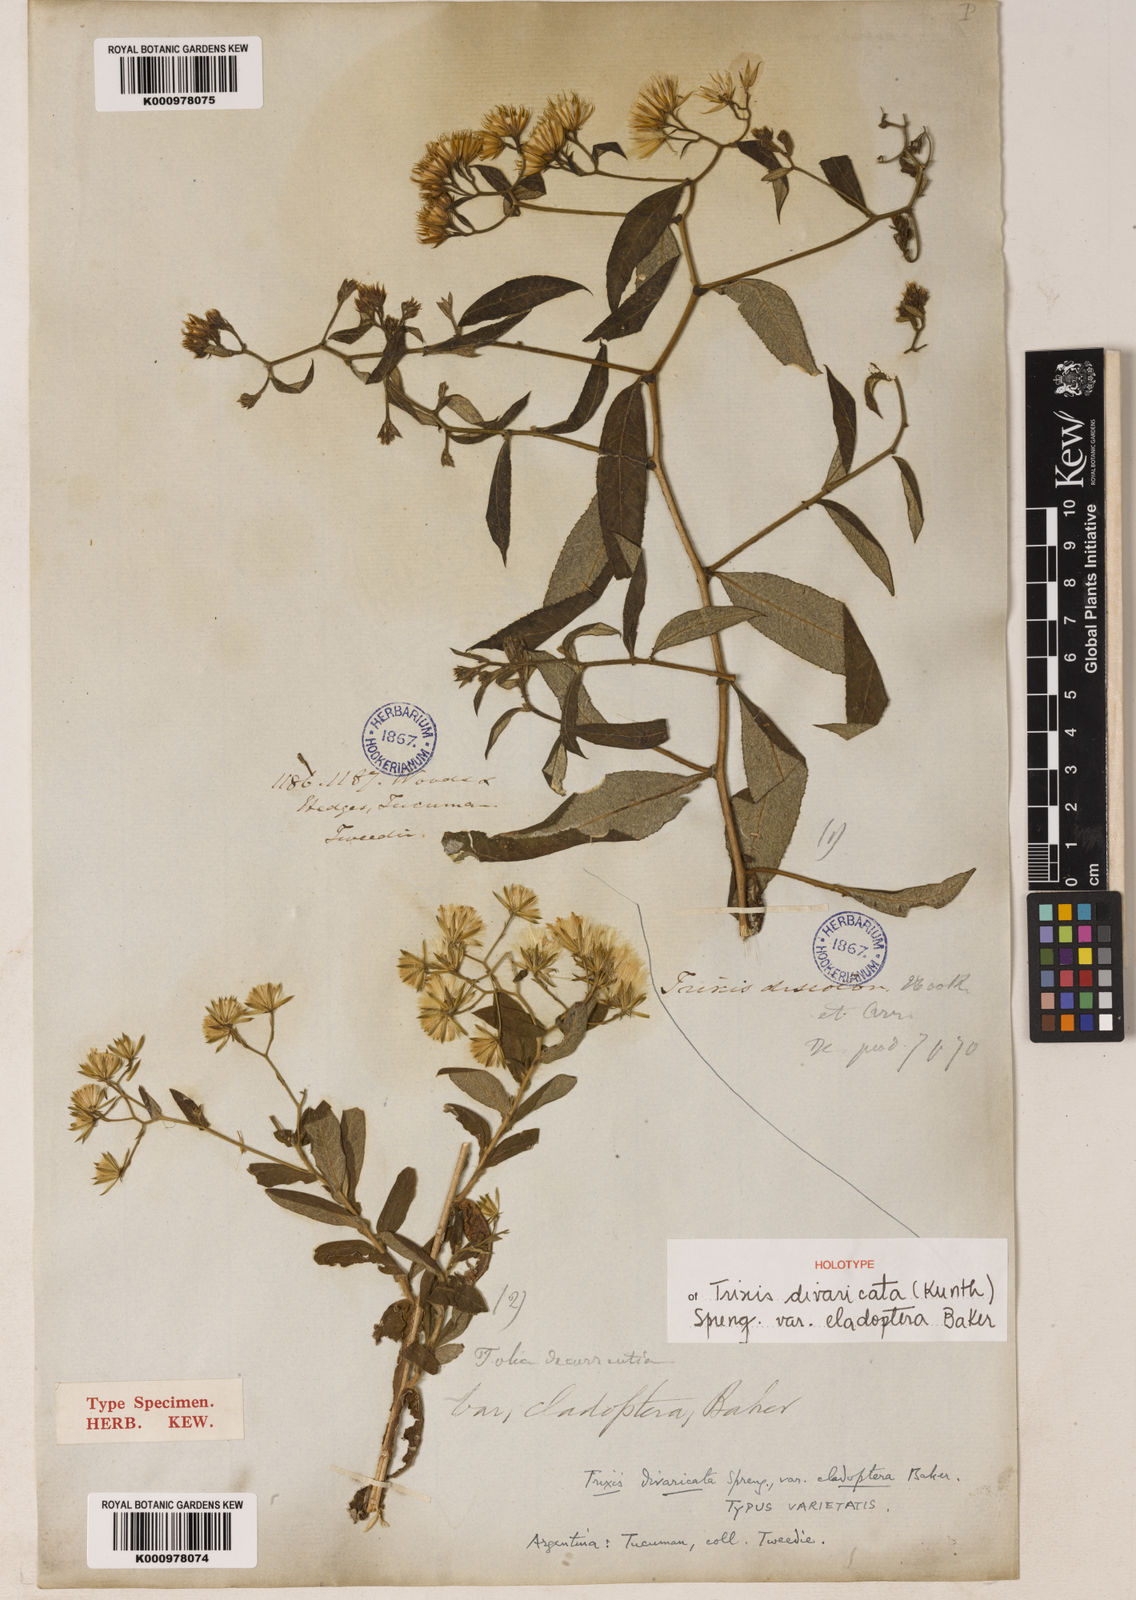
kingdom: Plantae
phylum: Tracheophyta
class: Magnoliopsida
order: Asterales
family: Asteraceae
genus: Trixis
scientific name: Trixis divaricata
